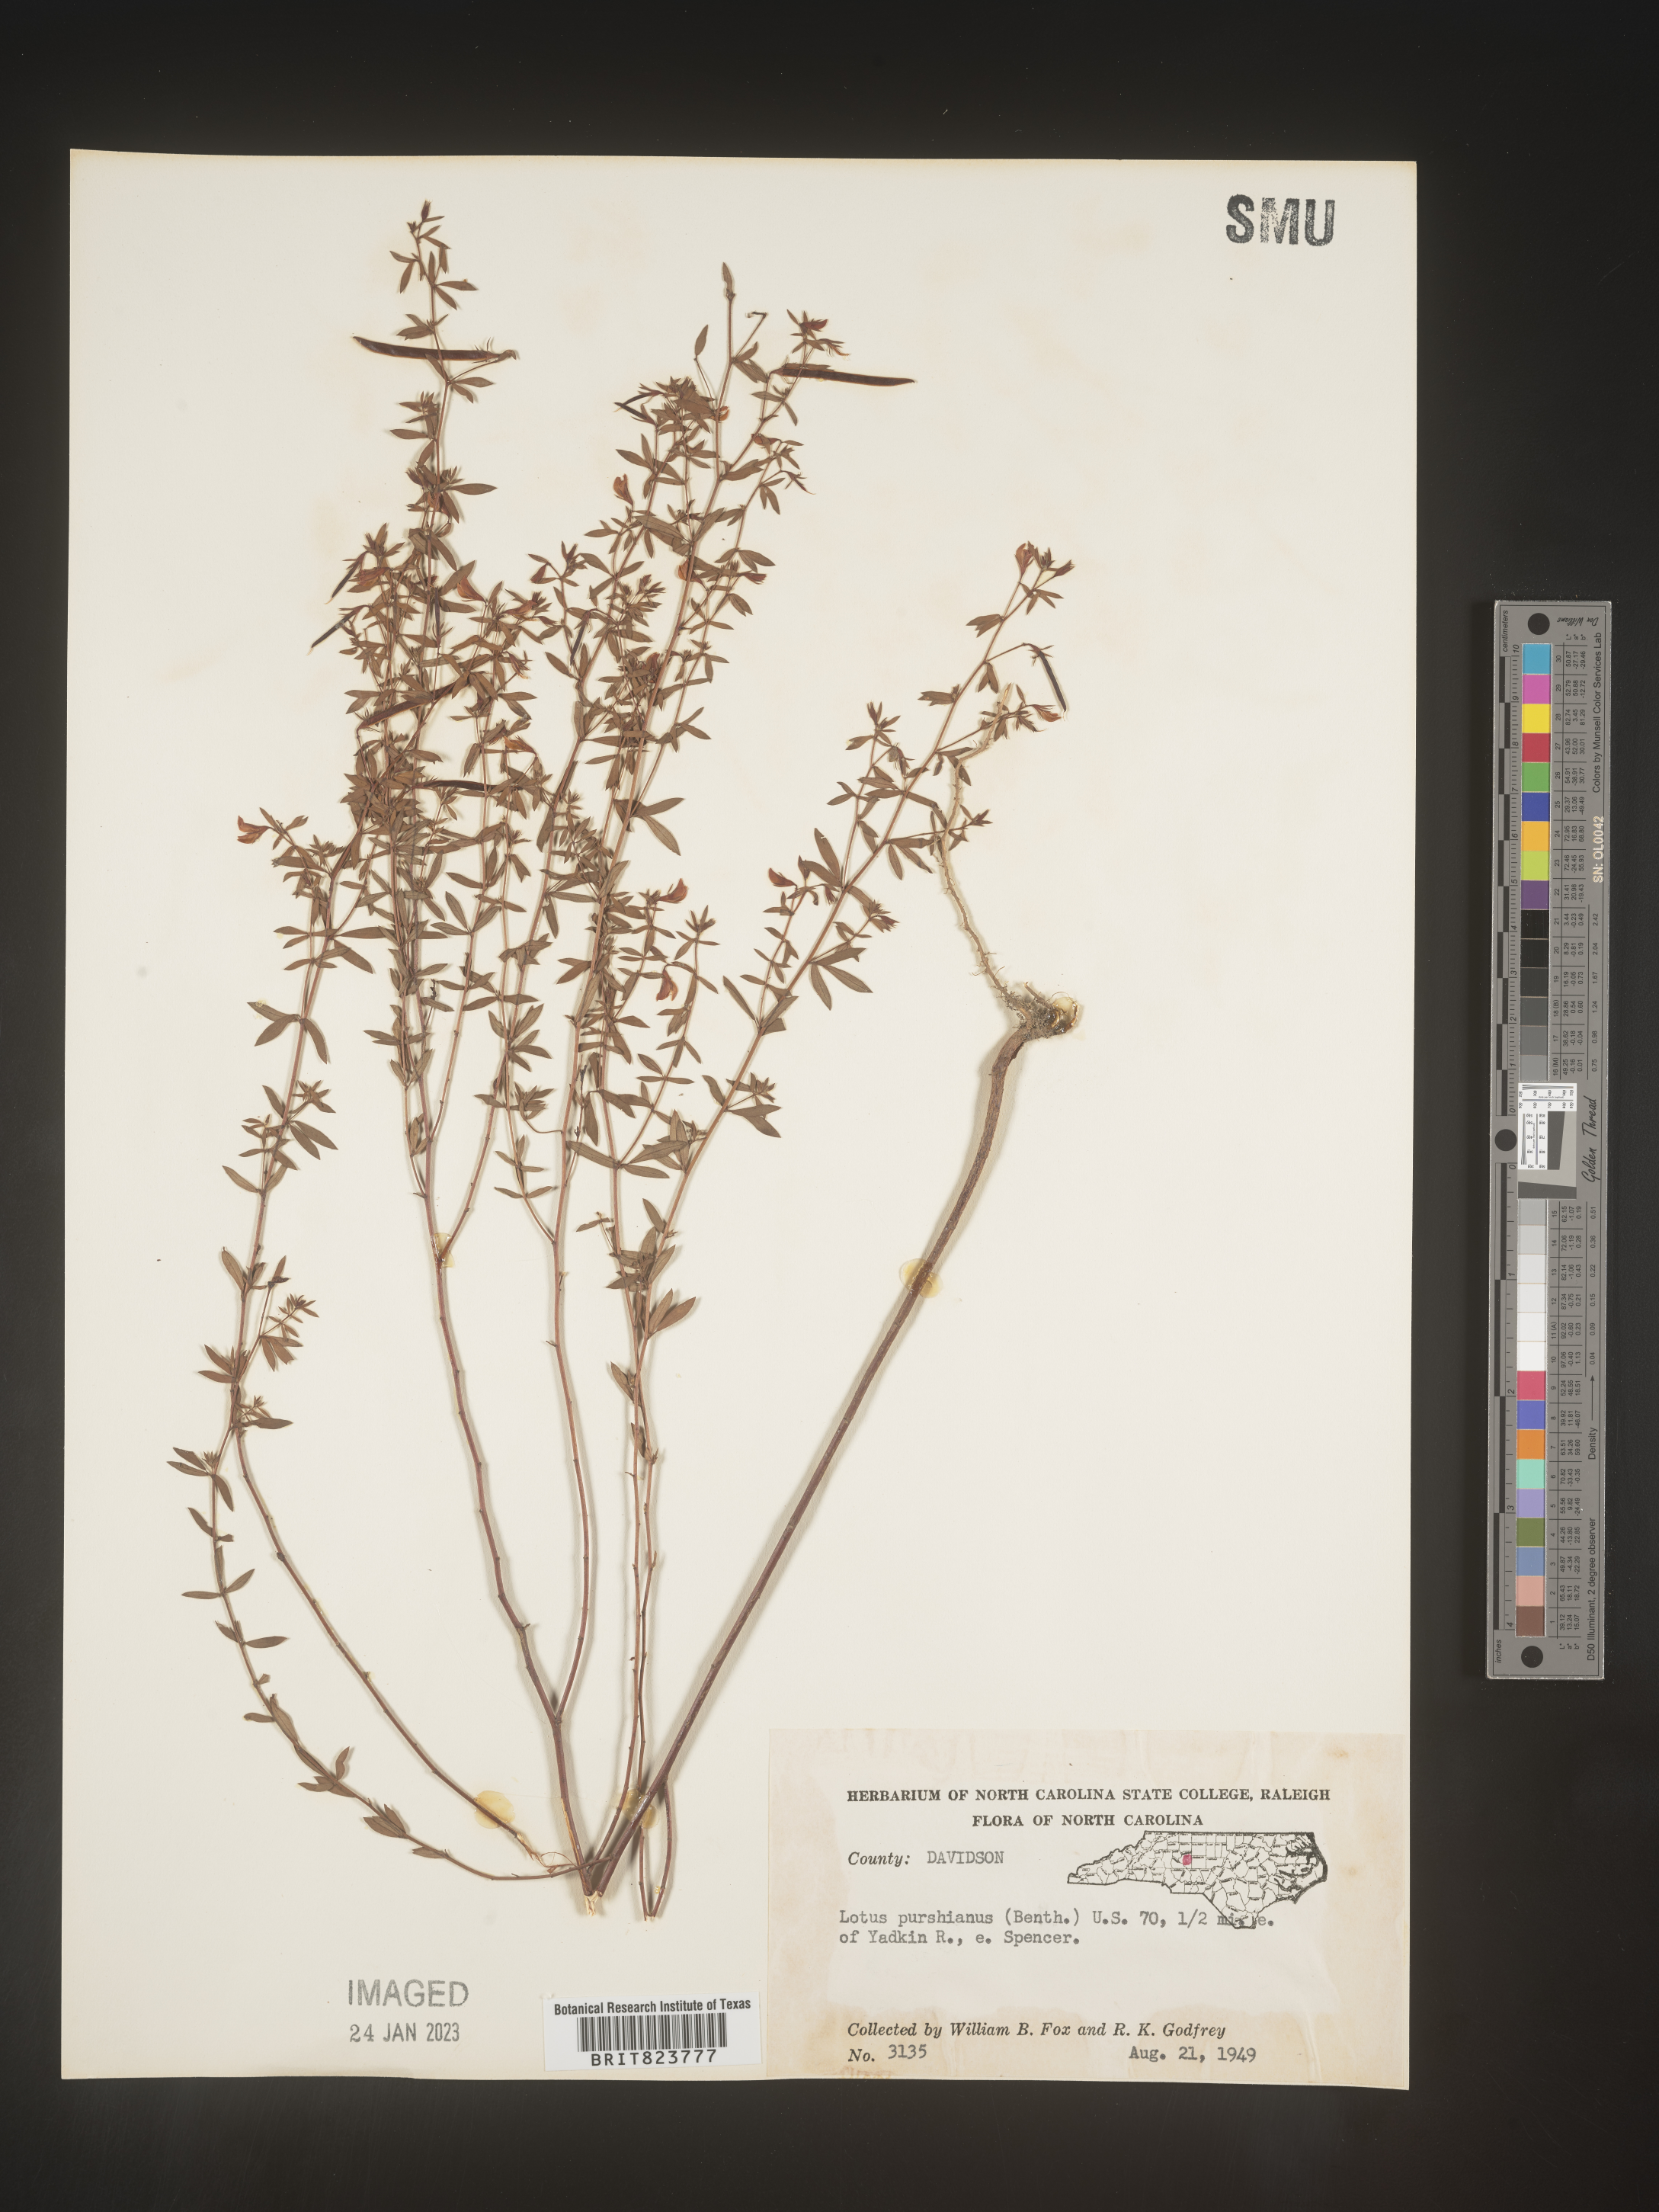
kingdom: Plantae
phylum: Tracheophyta
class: Magnoliopsida
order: Fabales
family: Fabaceae
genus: Acmispon
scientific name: Acmispon americanus
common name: American bird's-foot trefoil
